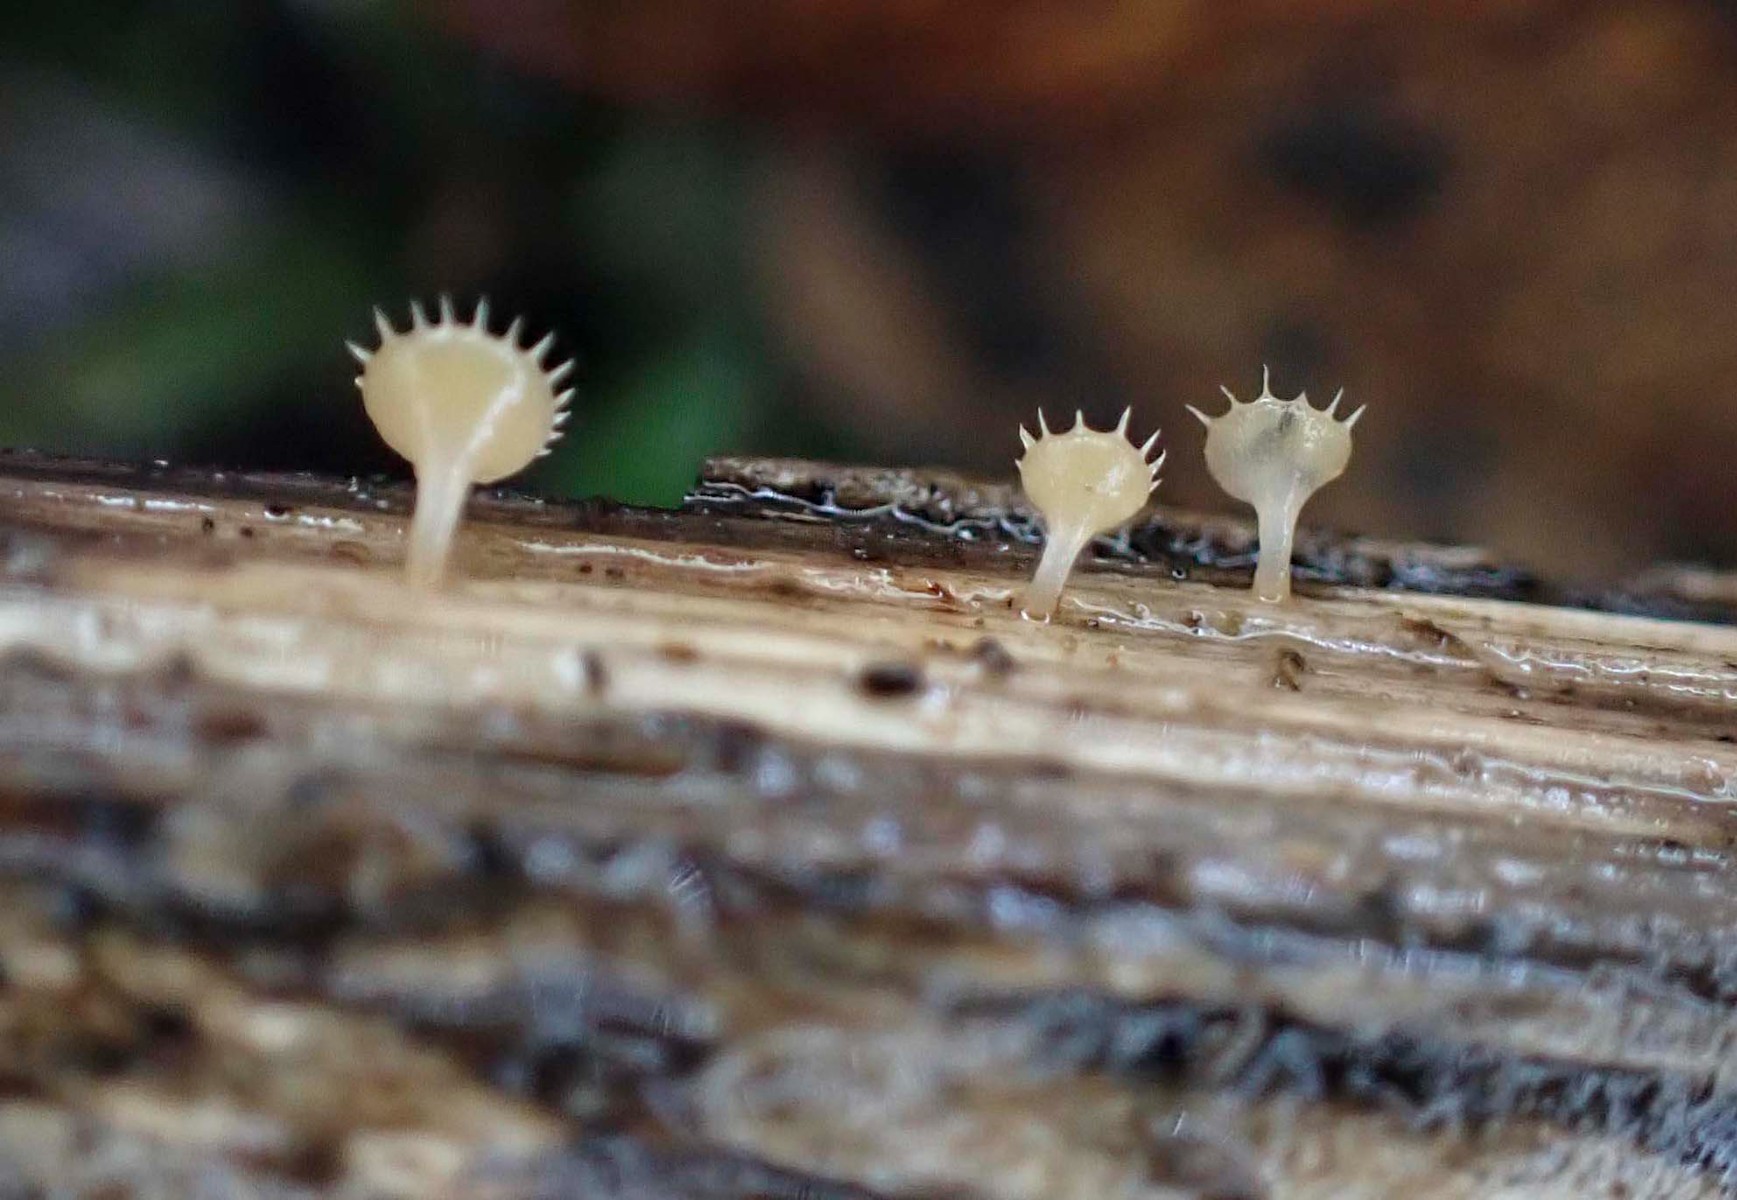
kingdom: Fungi
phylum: Ascomycota
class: Leotiomycetes
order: Helotiales
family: Helotiaceae
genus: Cyathicula
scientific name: Cyathicula coronata
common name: krone-stilkskive
